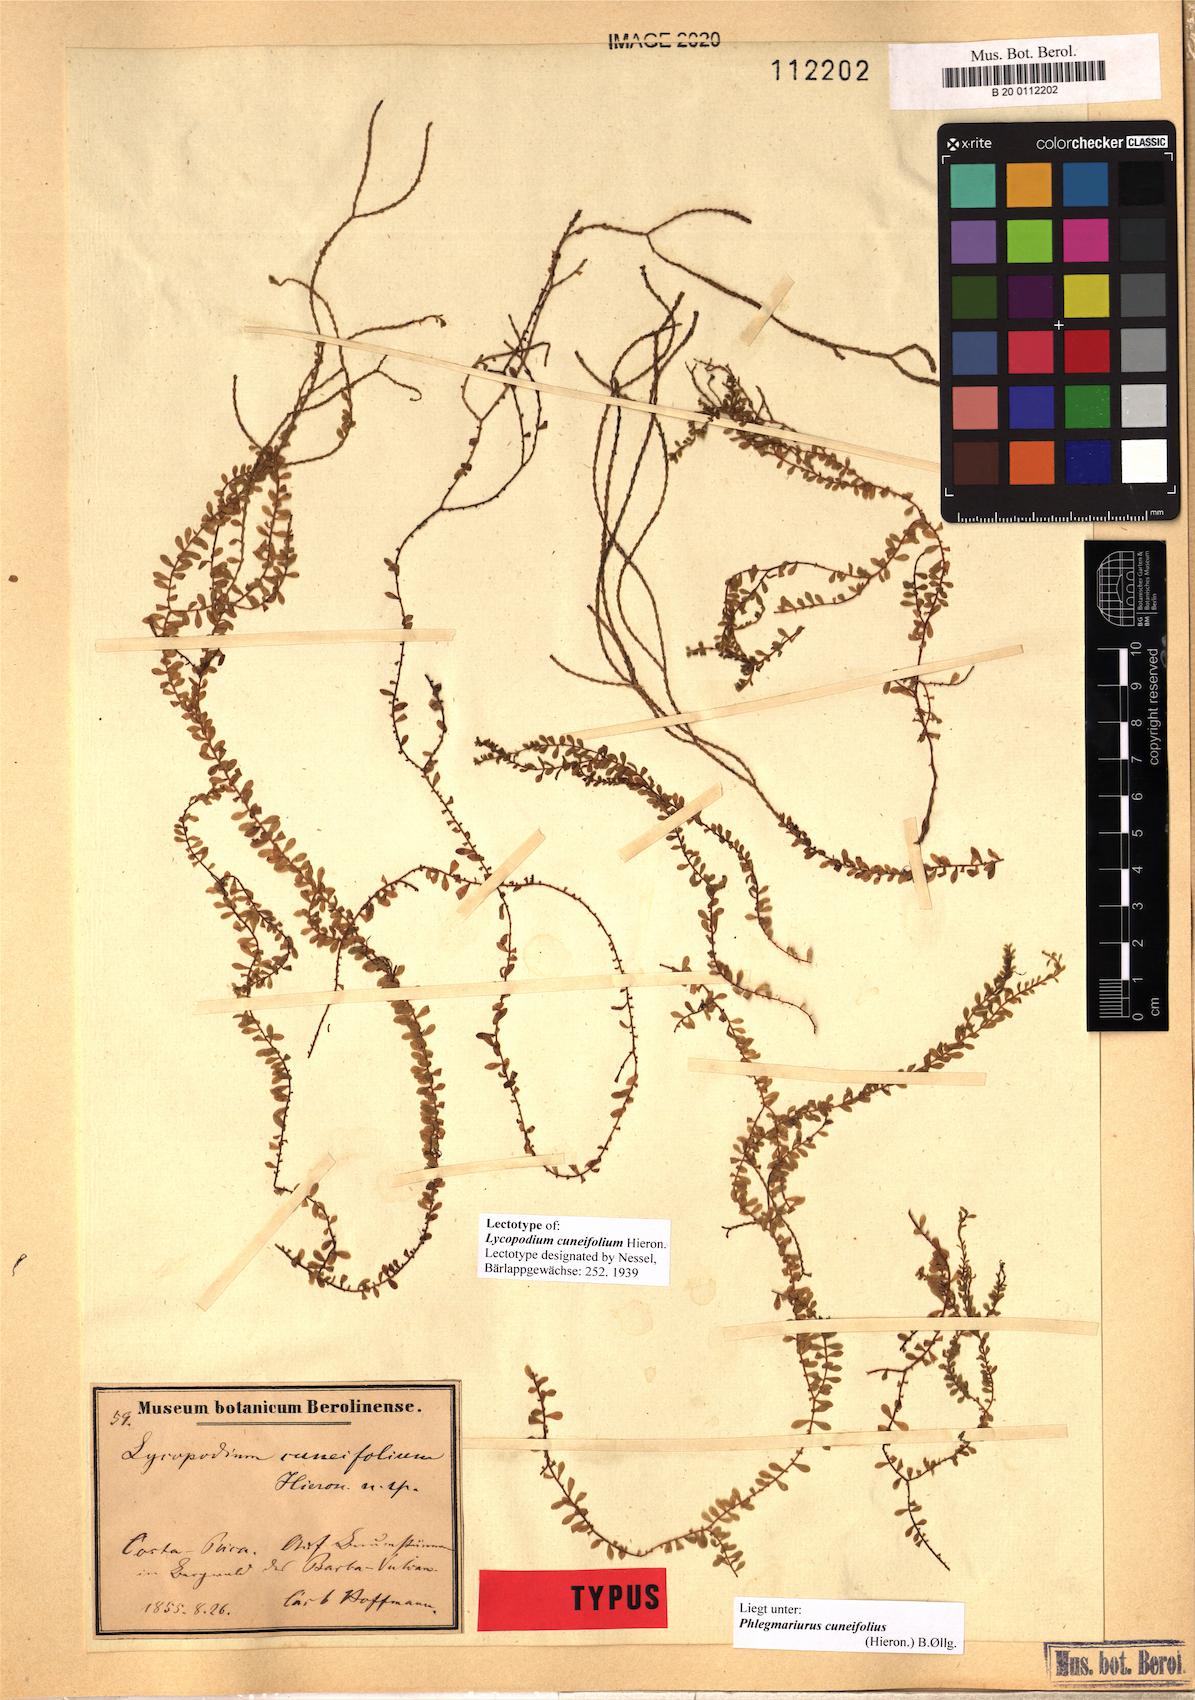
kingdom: Plantae
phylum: Tracheophyta
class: Lycopodiopsida
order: Lycopodiales
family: Lycopodiaceae
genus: Phlegmariurus
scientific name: Phlegmariurus cuneifolius
